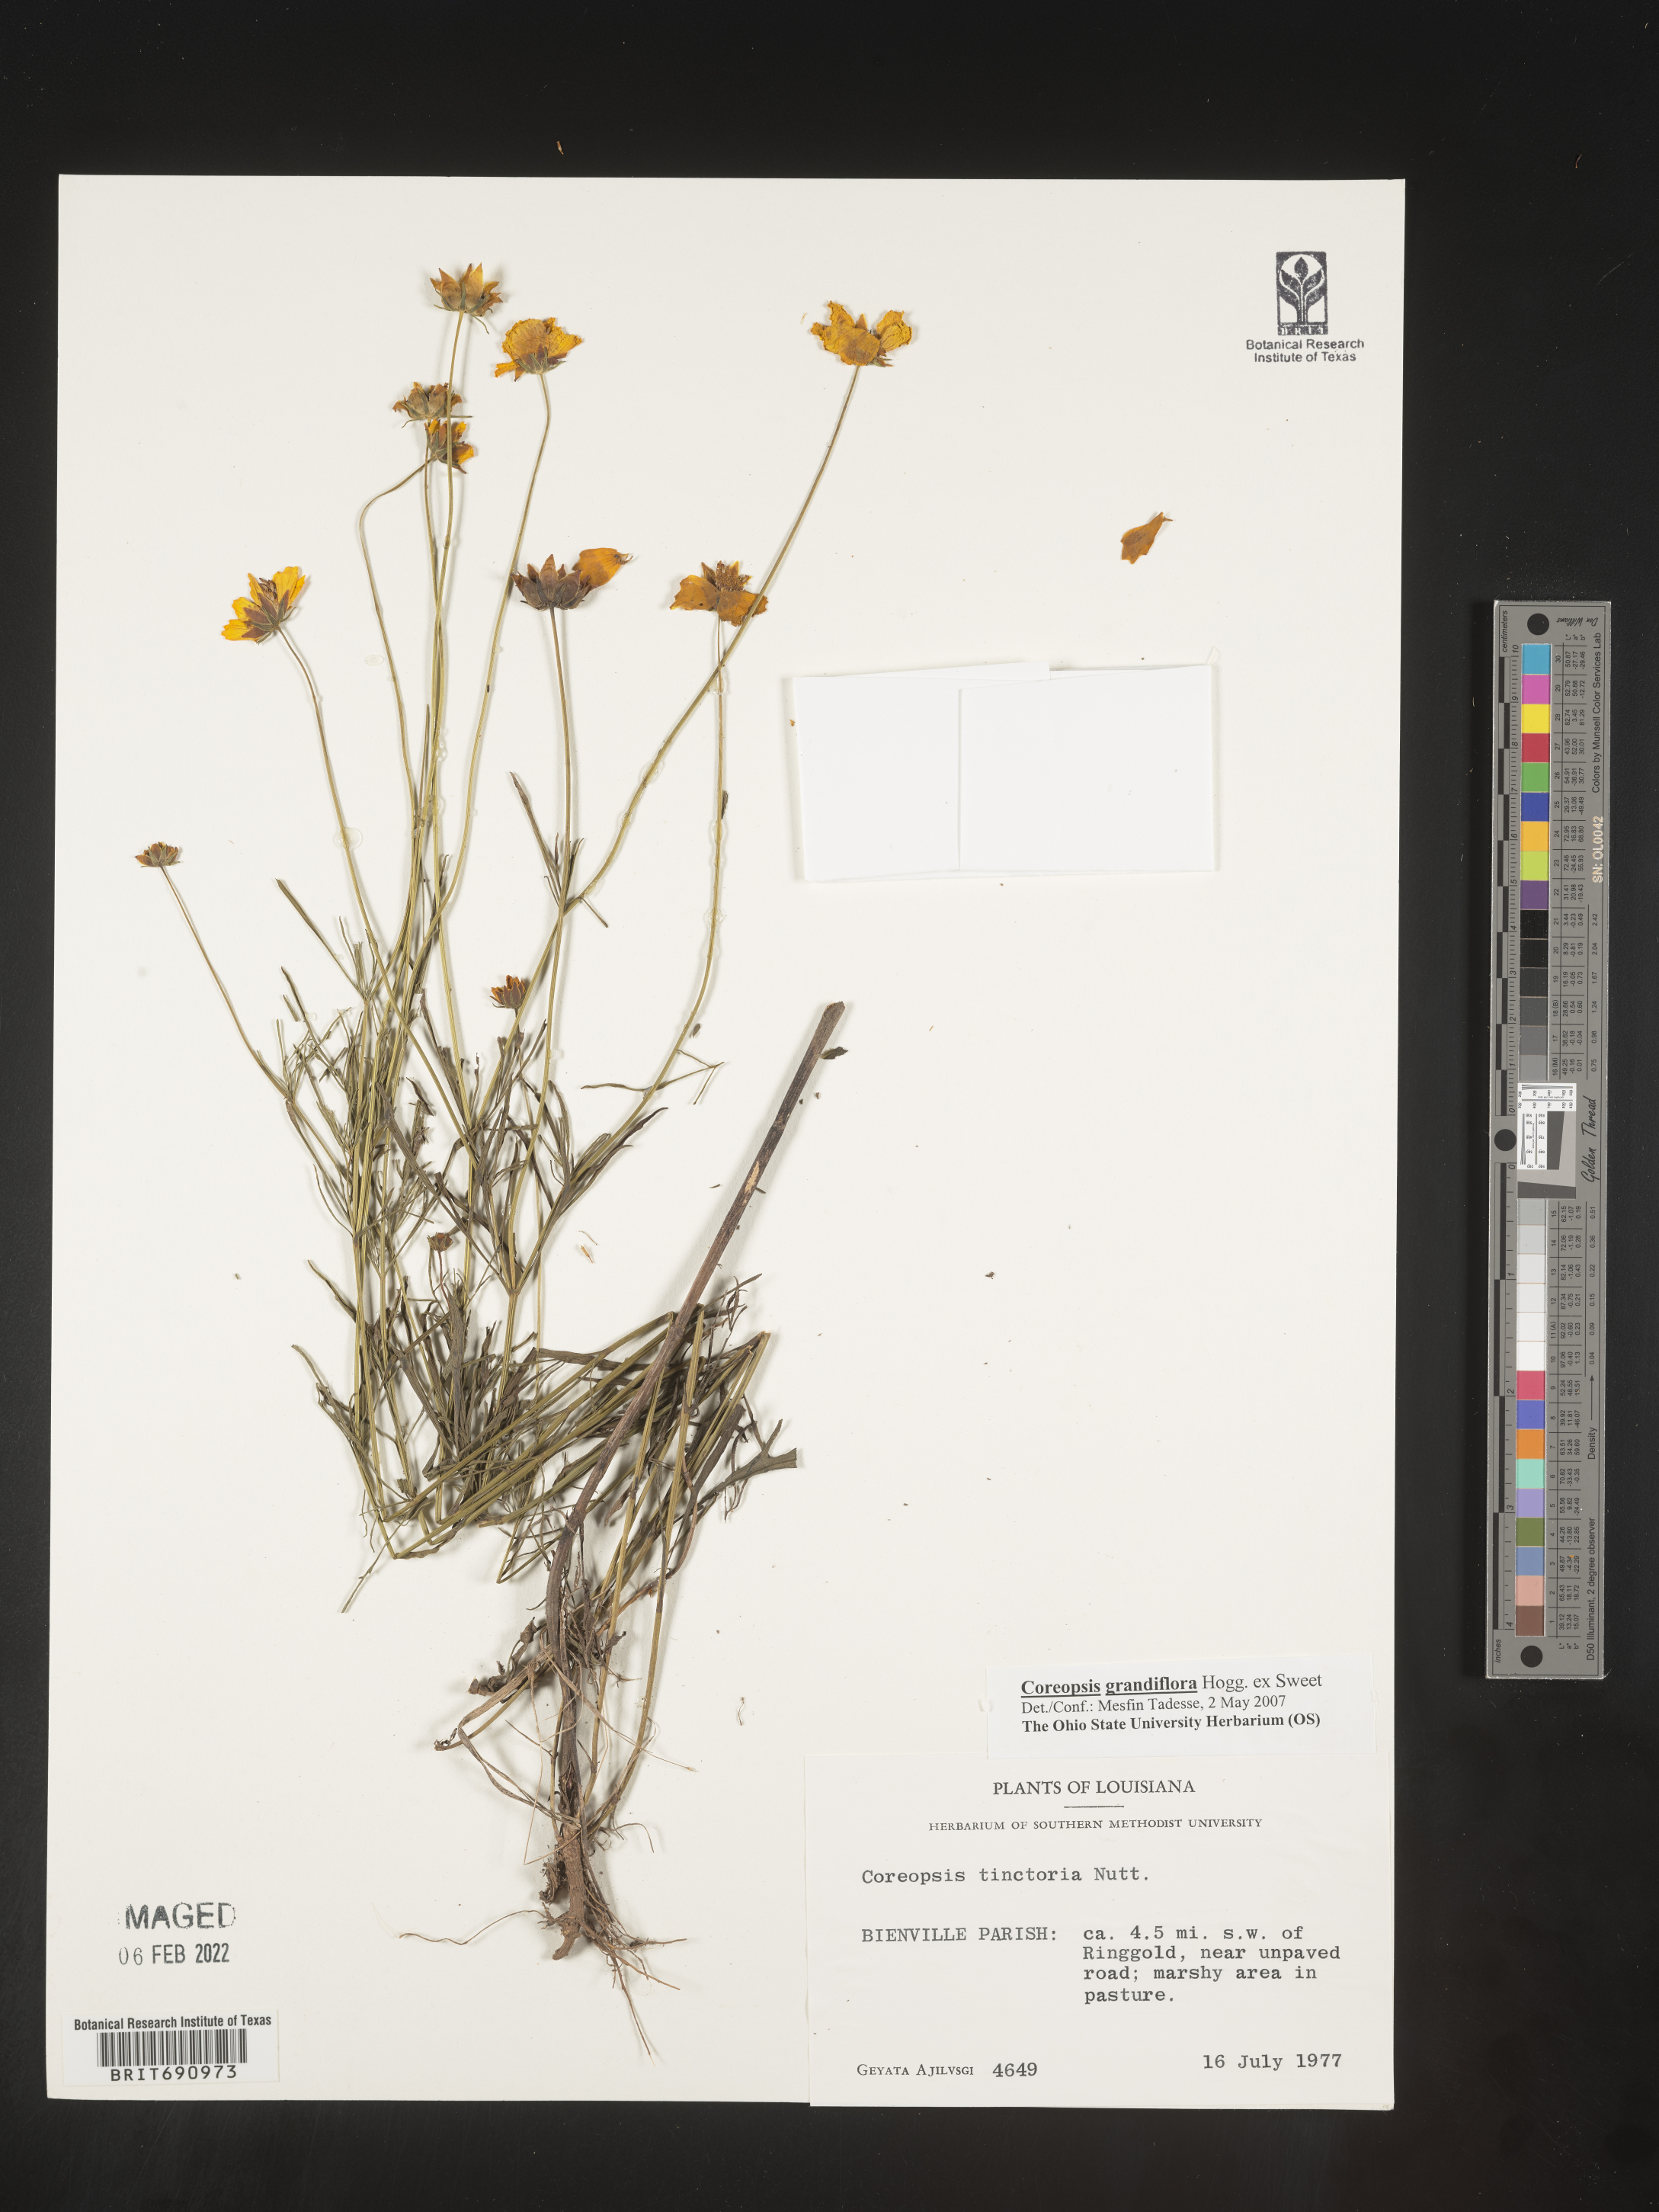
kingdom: Plantae
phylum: Tracheophyta
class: Magnoliopsida
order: Asterales
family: Asteraceae
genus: Coreopsis
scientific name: Coreopsis grandiflora
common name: Large-flowered tickseed
